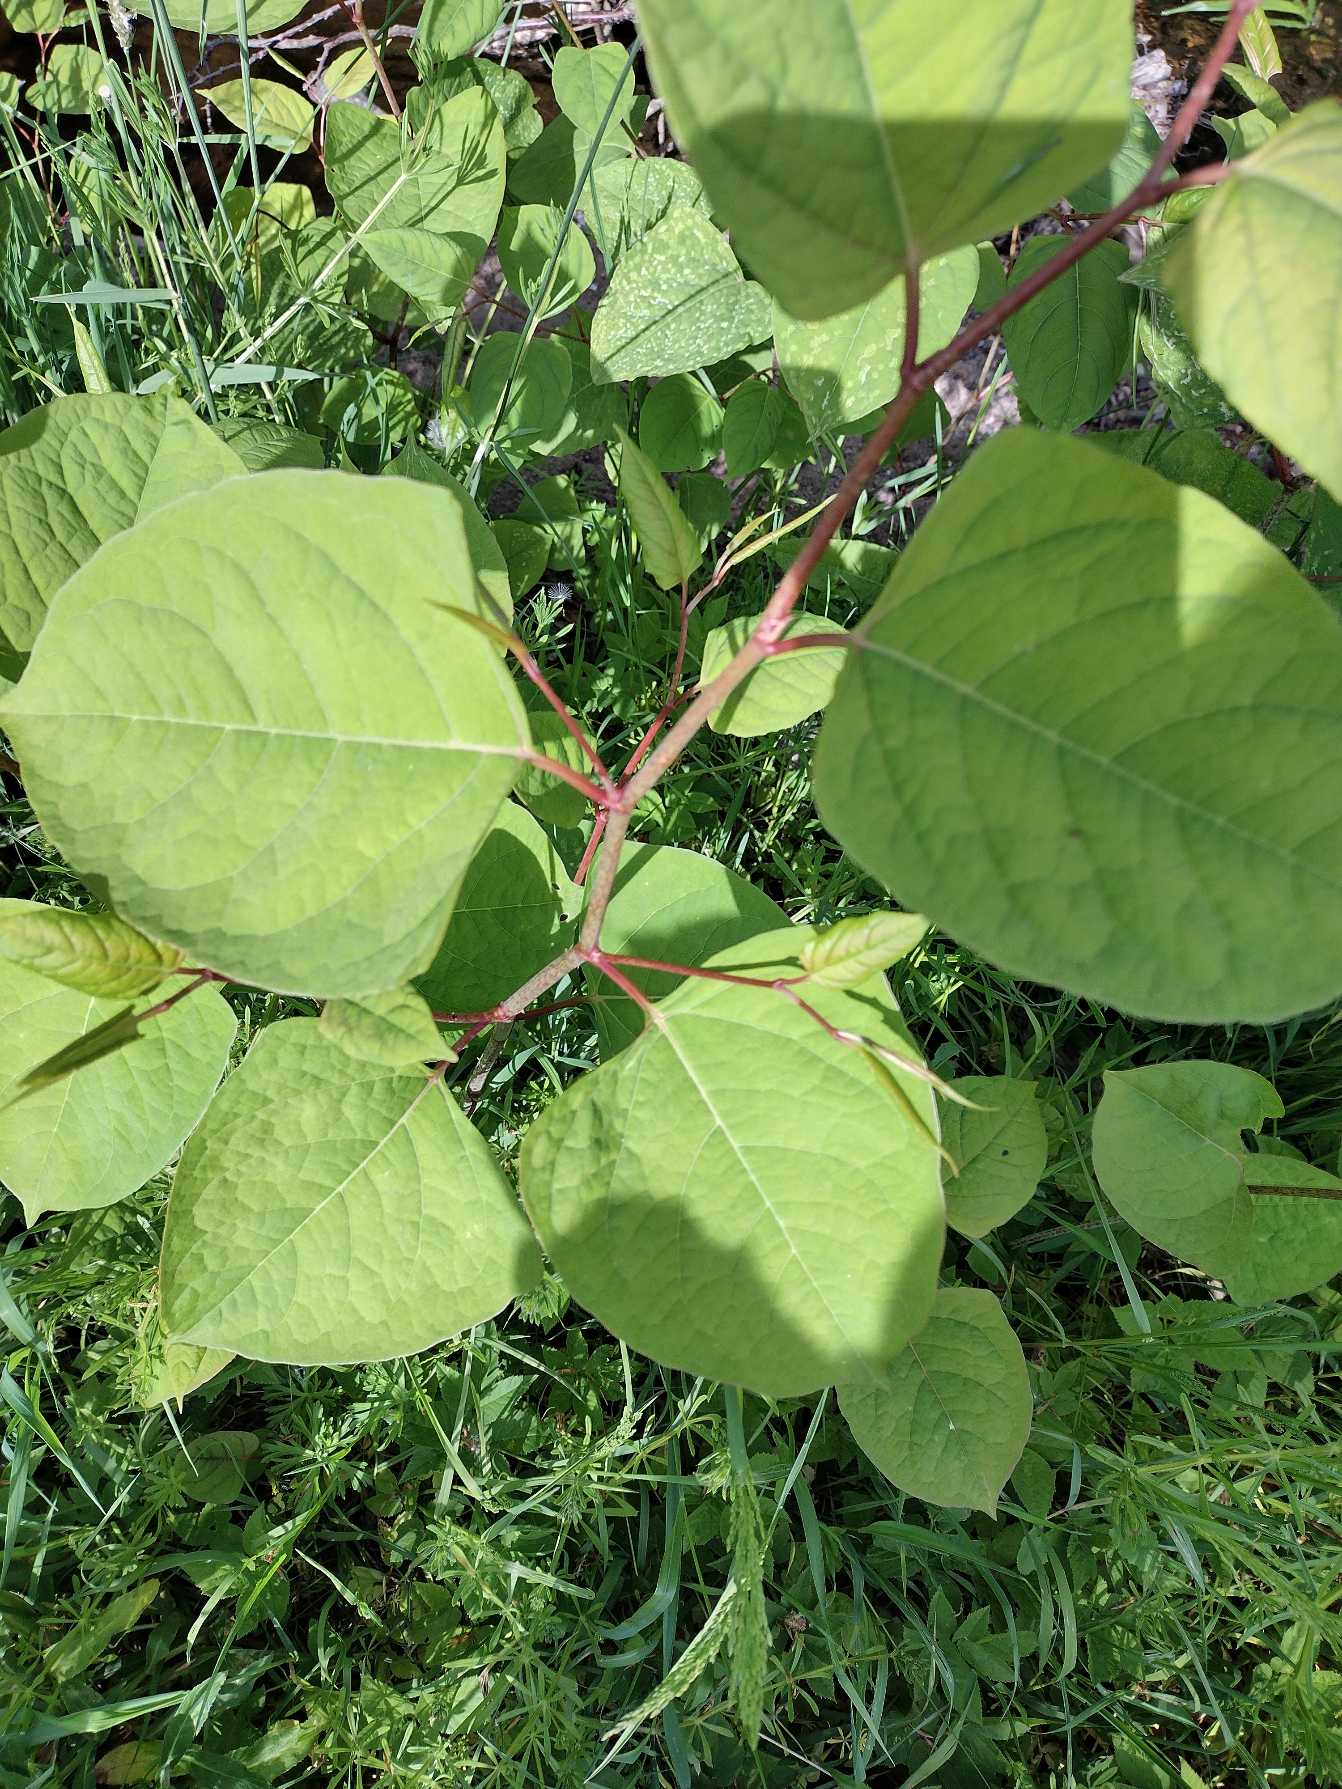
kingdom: Plantae
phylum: Tracheophyta
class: Magnoliopsida
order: Caryophyllales
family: Polygonaceae
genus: Reynoutria
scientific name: Reynoutria japonica
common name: Japan-pileurt
